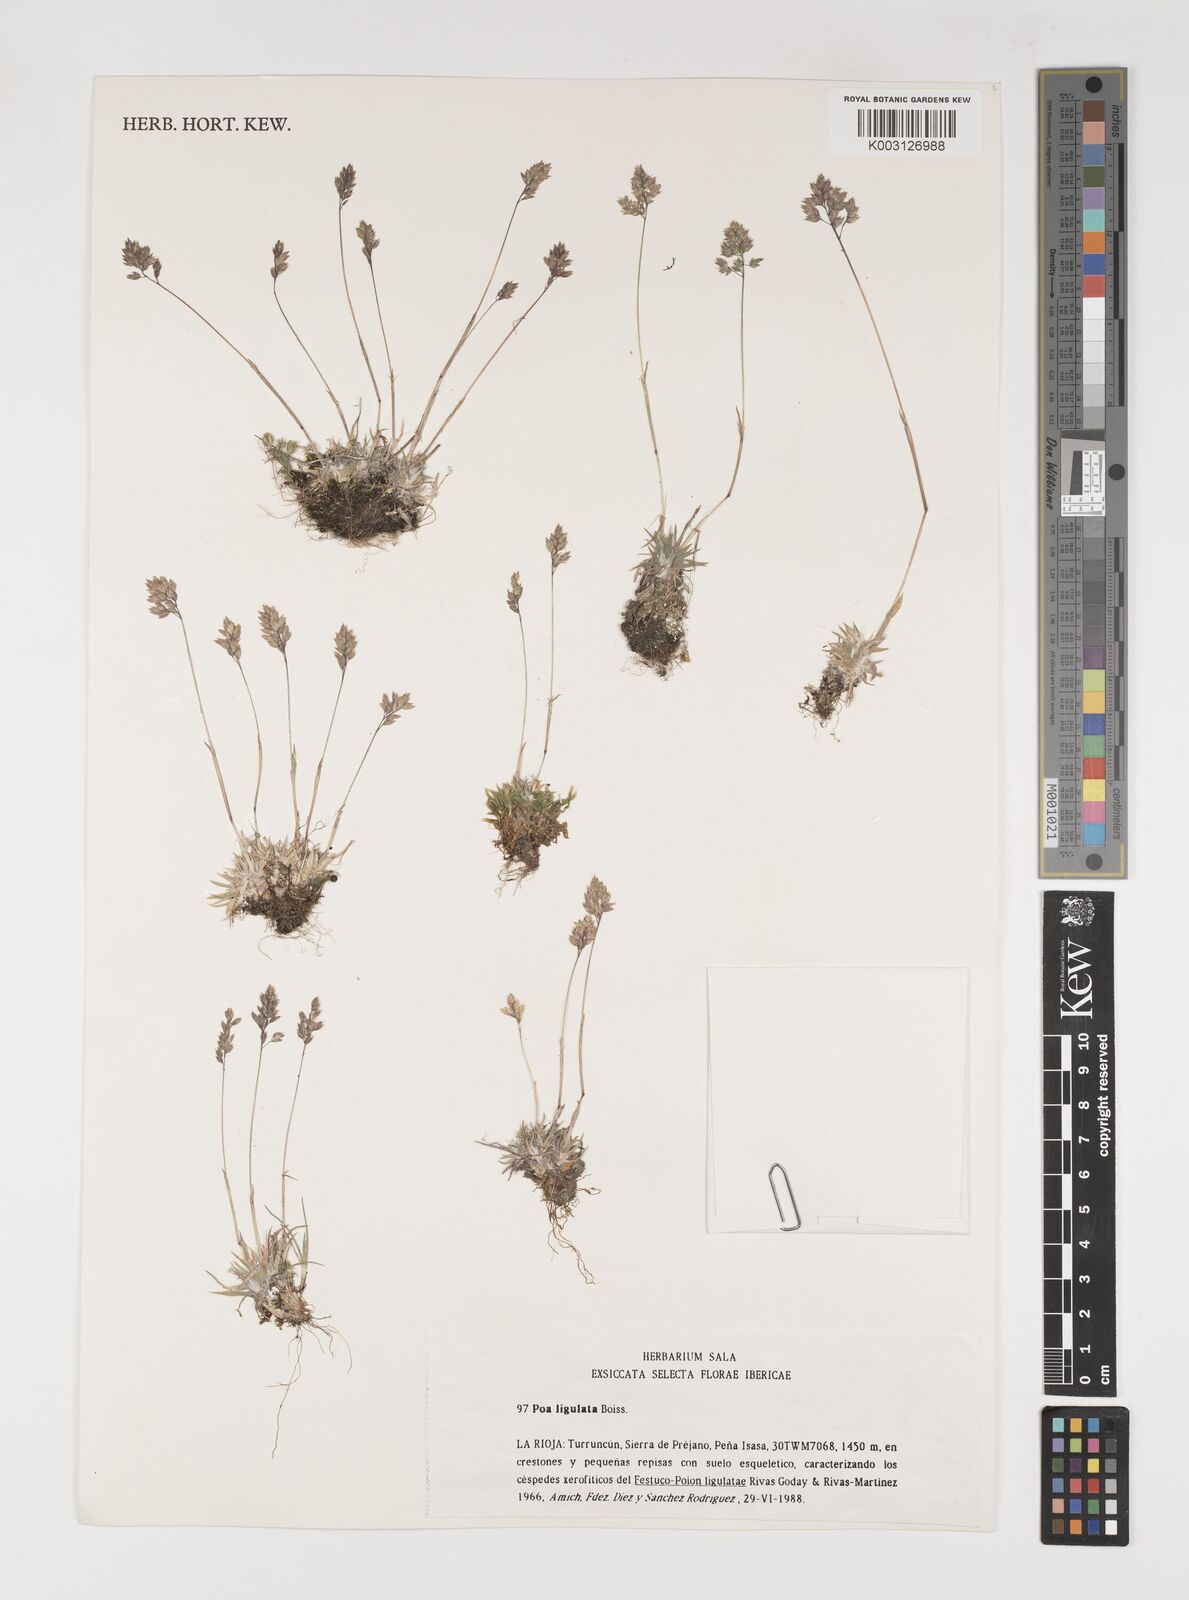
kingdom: Plantae
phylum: Tracheophyta
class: Liliopsida
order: Poales
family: Poaceae
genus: Poa
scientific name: Poa ligulata
